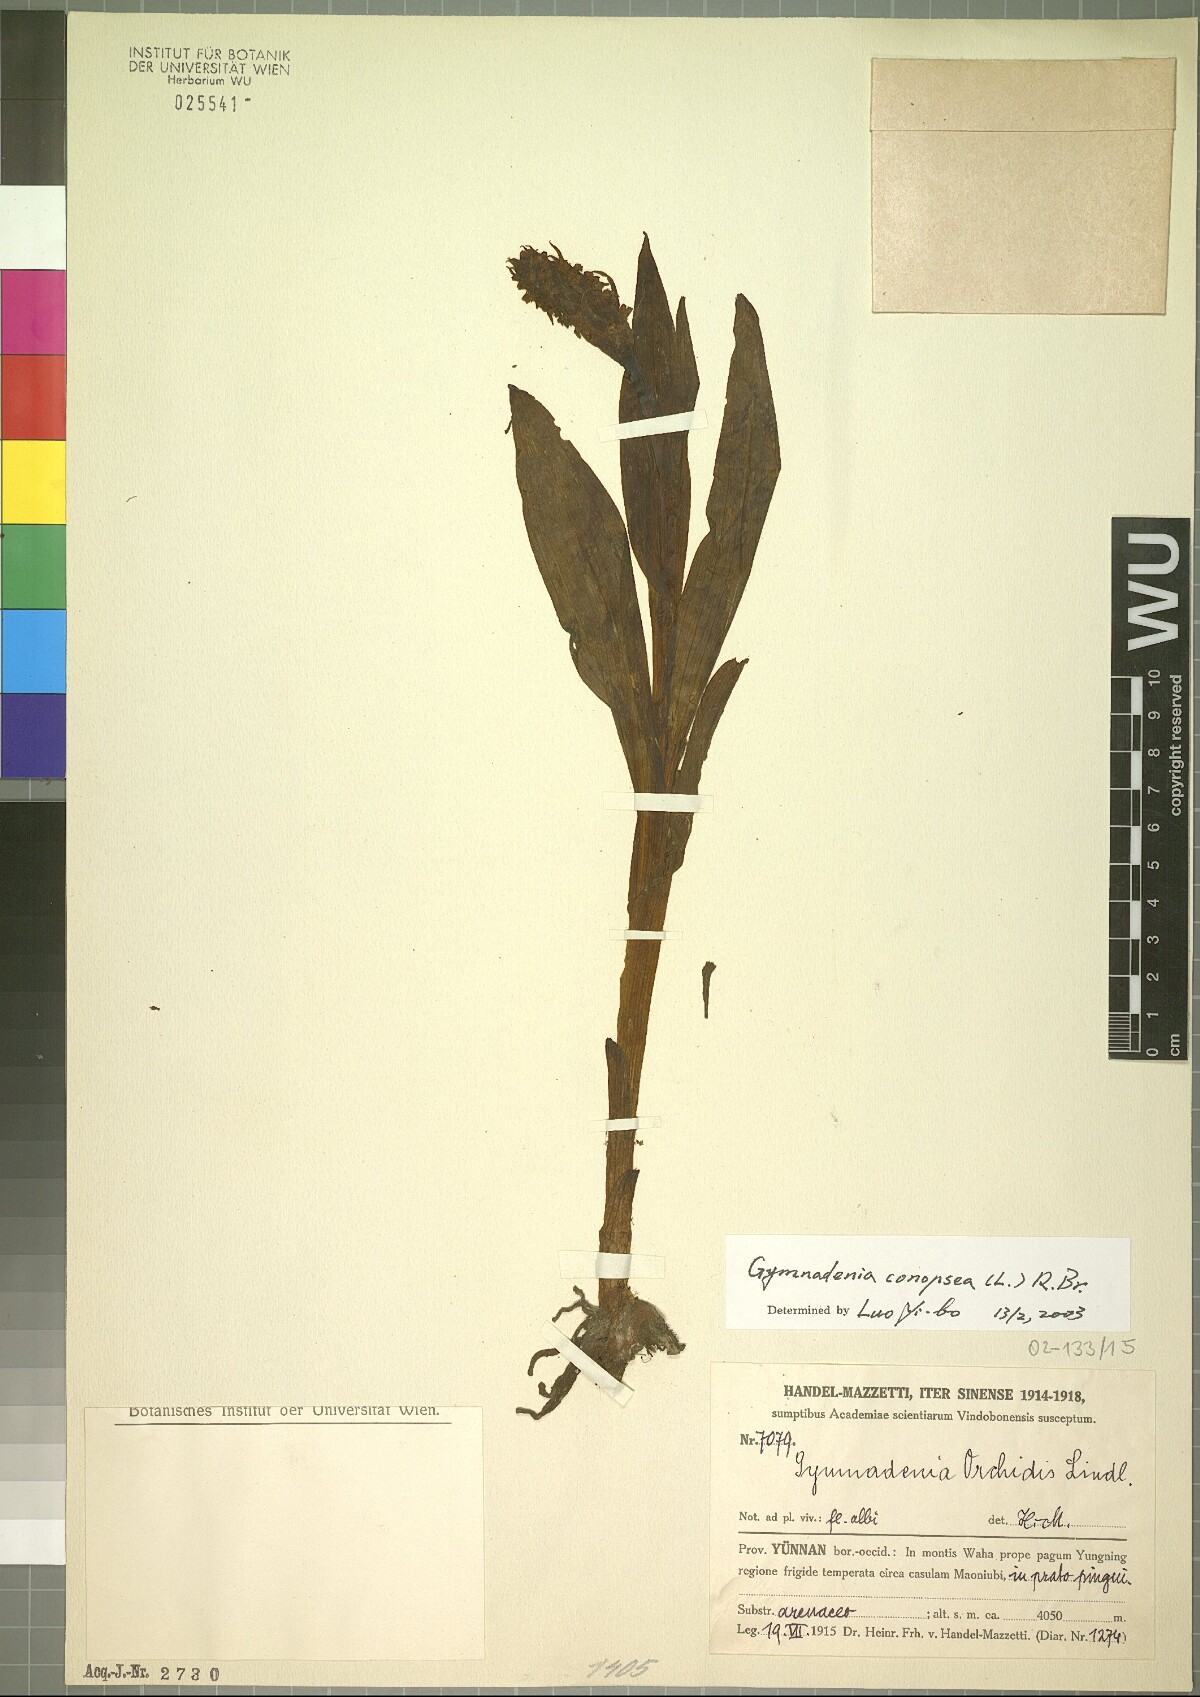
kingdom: Plantae
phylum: Tracheophyta
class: Liliopsida
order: Asparagales
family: Orchidaceae
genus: Gymnadenia
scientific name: Gymnadenia conopsea
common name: Fragrant orchid
